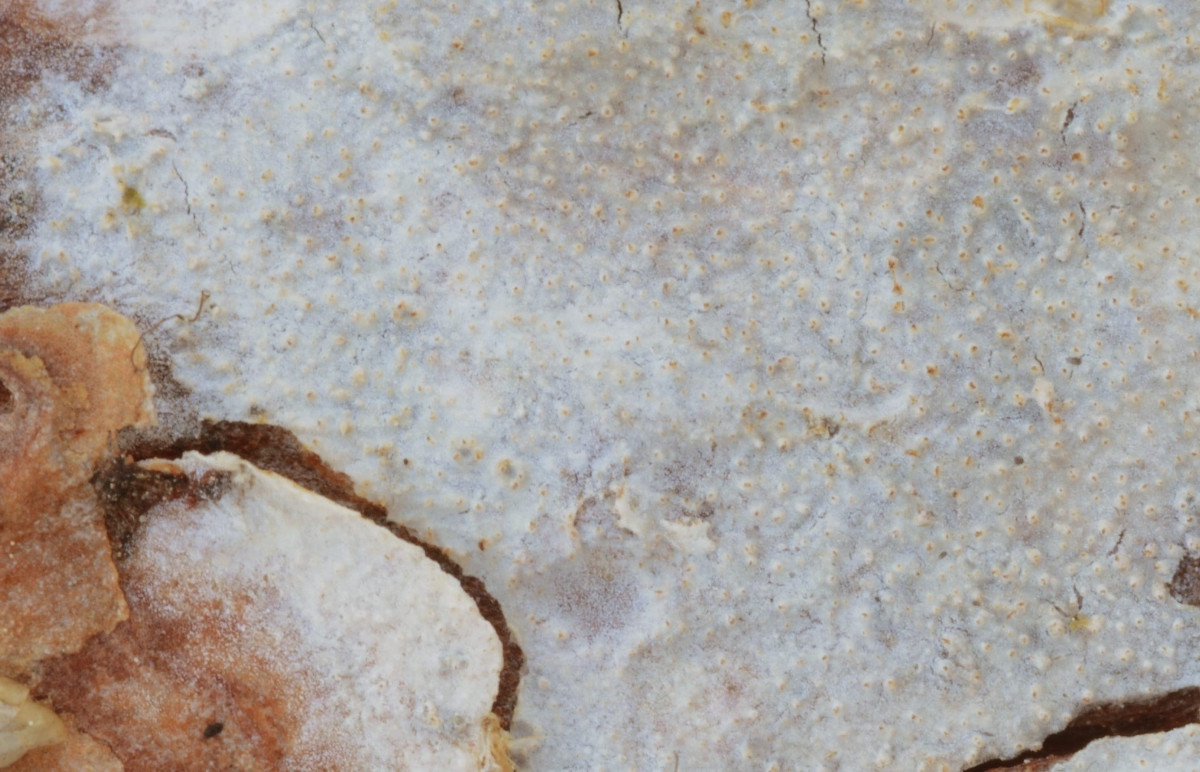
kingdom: Fungi
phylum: Basidiomycota
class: Agaricomycetes
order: Hymenochaetales
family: Rickenellaceae
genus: Resinicium
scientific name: Resinicium bicolor
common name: almindelig vokstand
